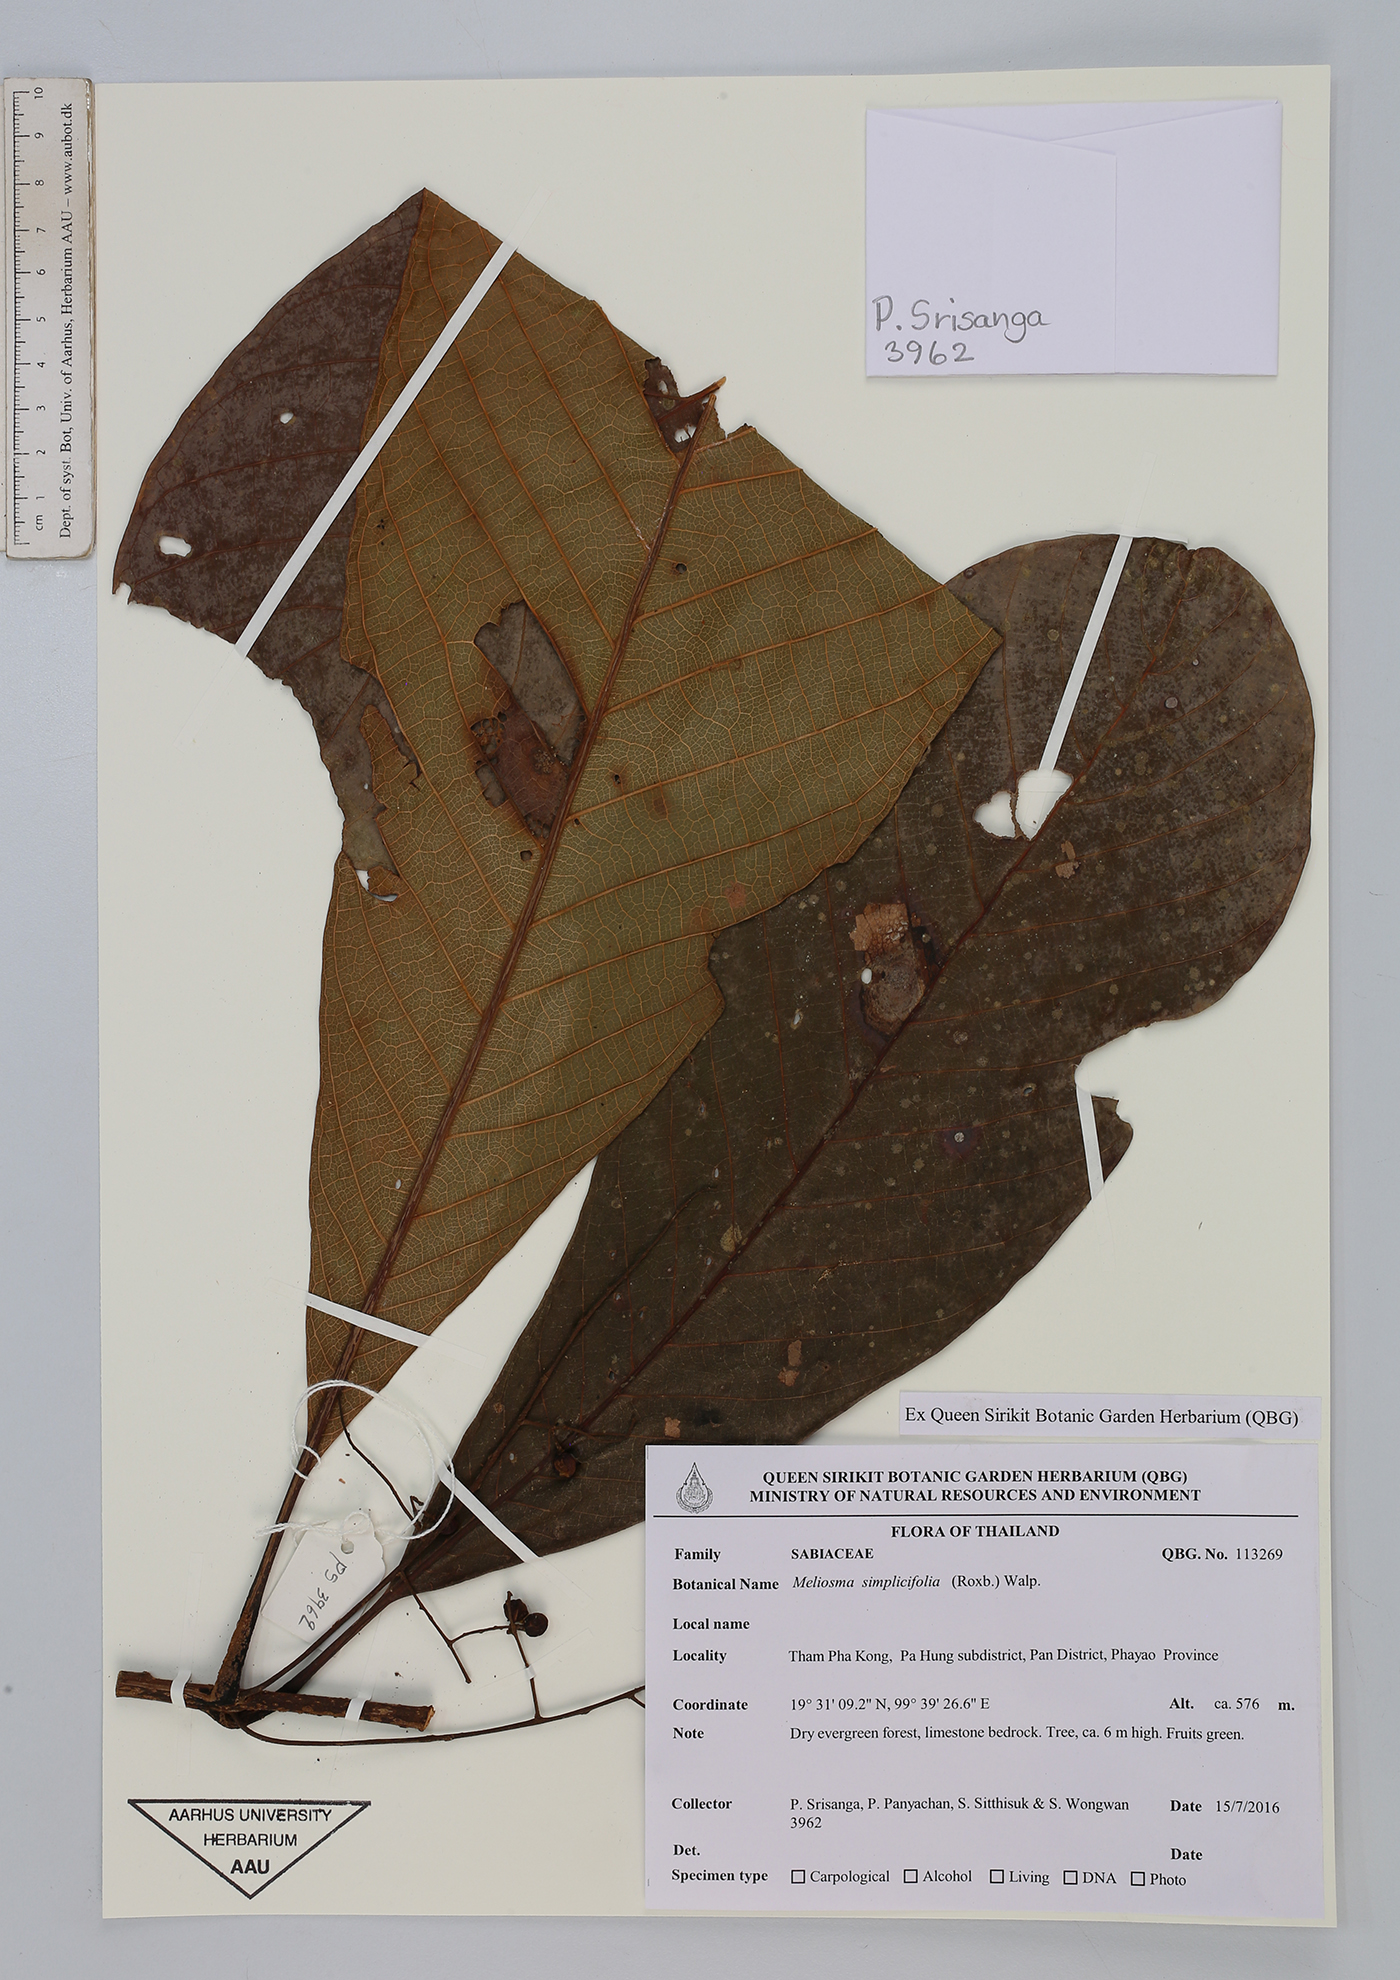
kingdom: Plantae
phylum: Tracheophyta
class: Magnoliopsida
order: Proteales
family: Sabiaceae
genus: Meliosma
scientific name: Meliosma simplicifolia
